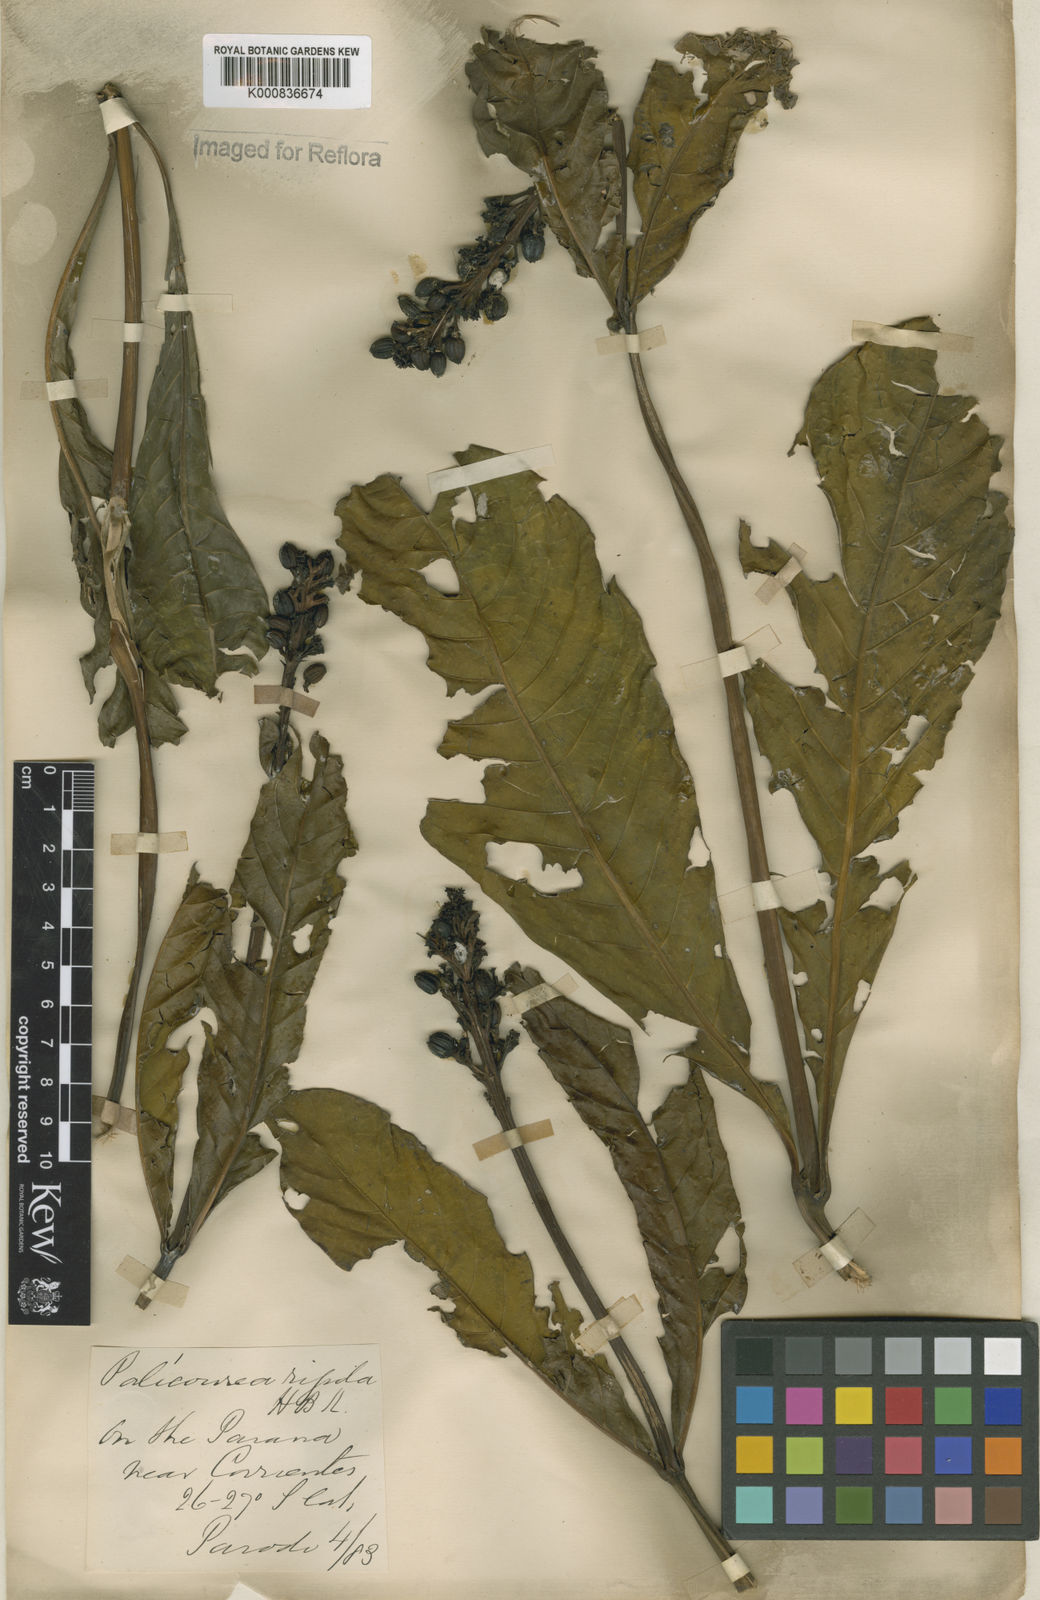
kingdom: Plantae
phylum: Tracheophyta
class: Magnoliopsida
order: Gentianales
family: Rubiaceae
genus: Palicourea
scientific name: Palicourea rigida
